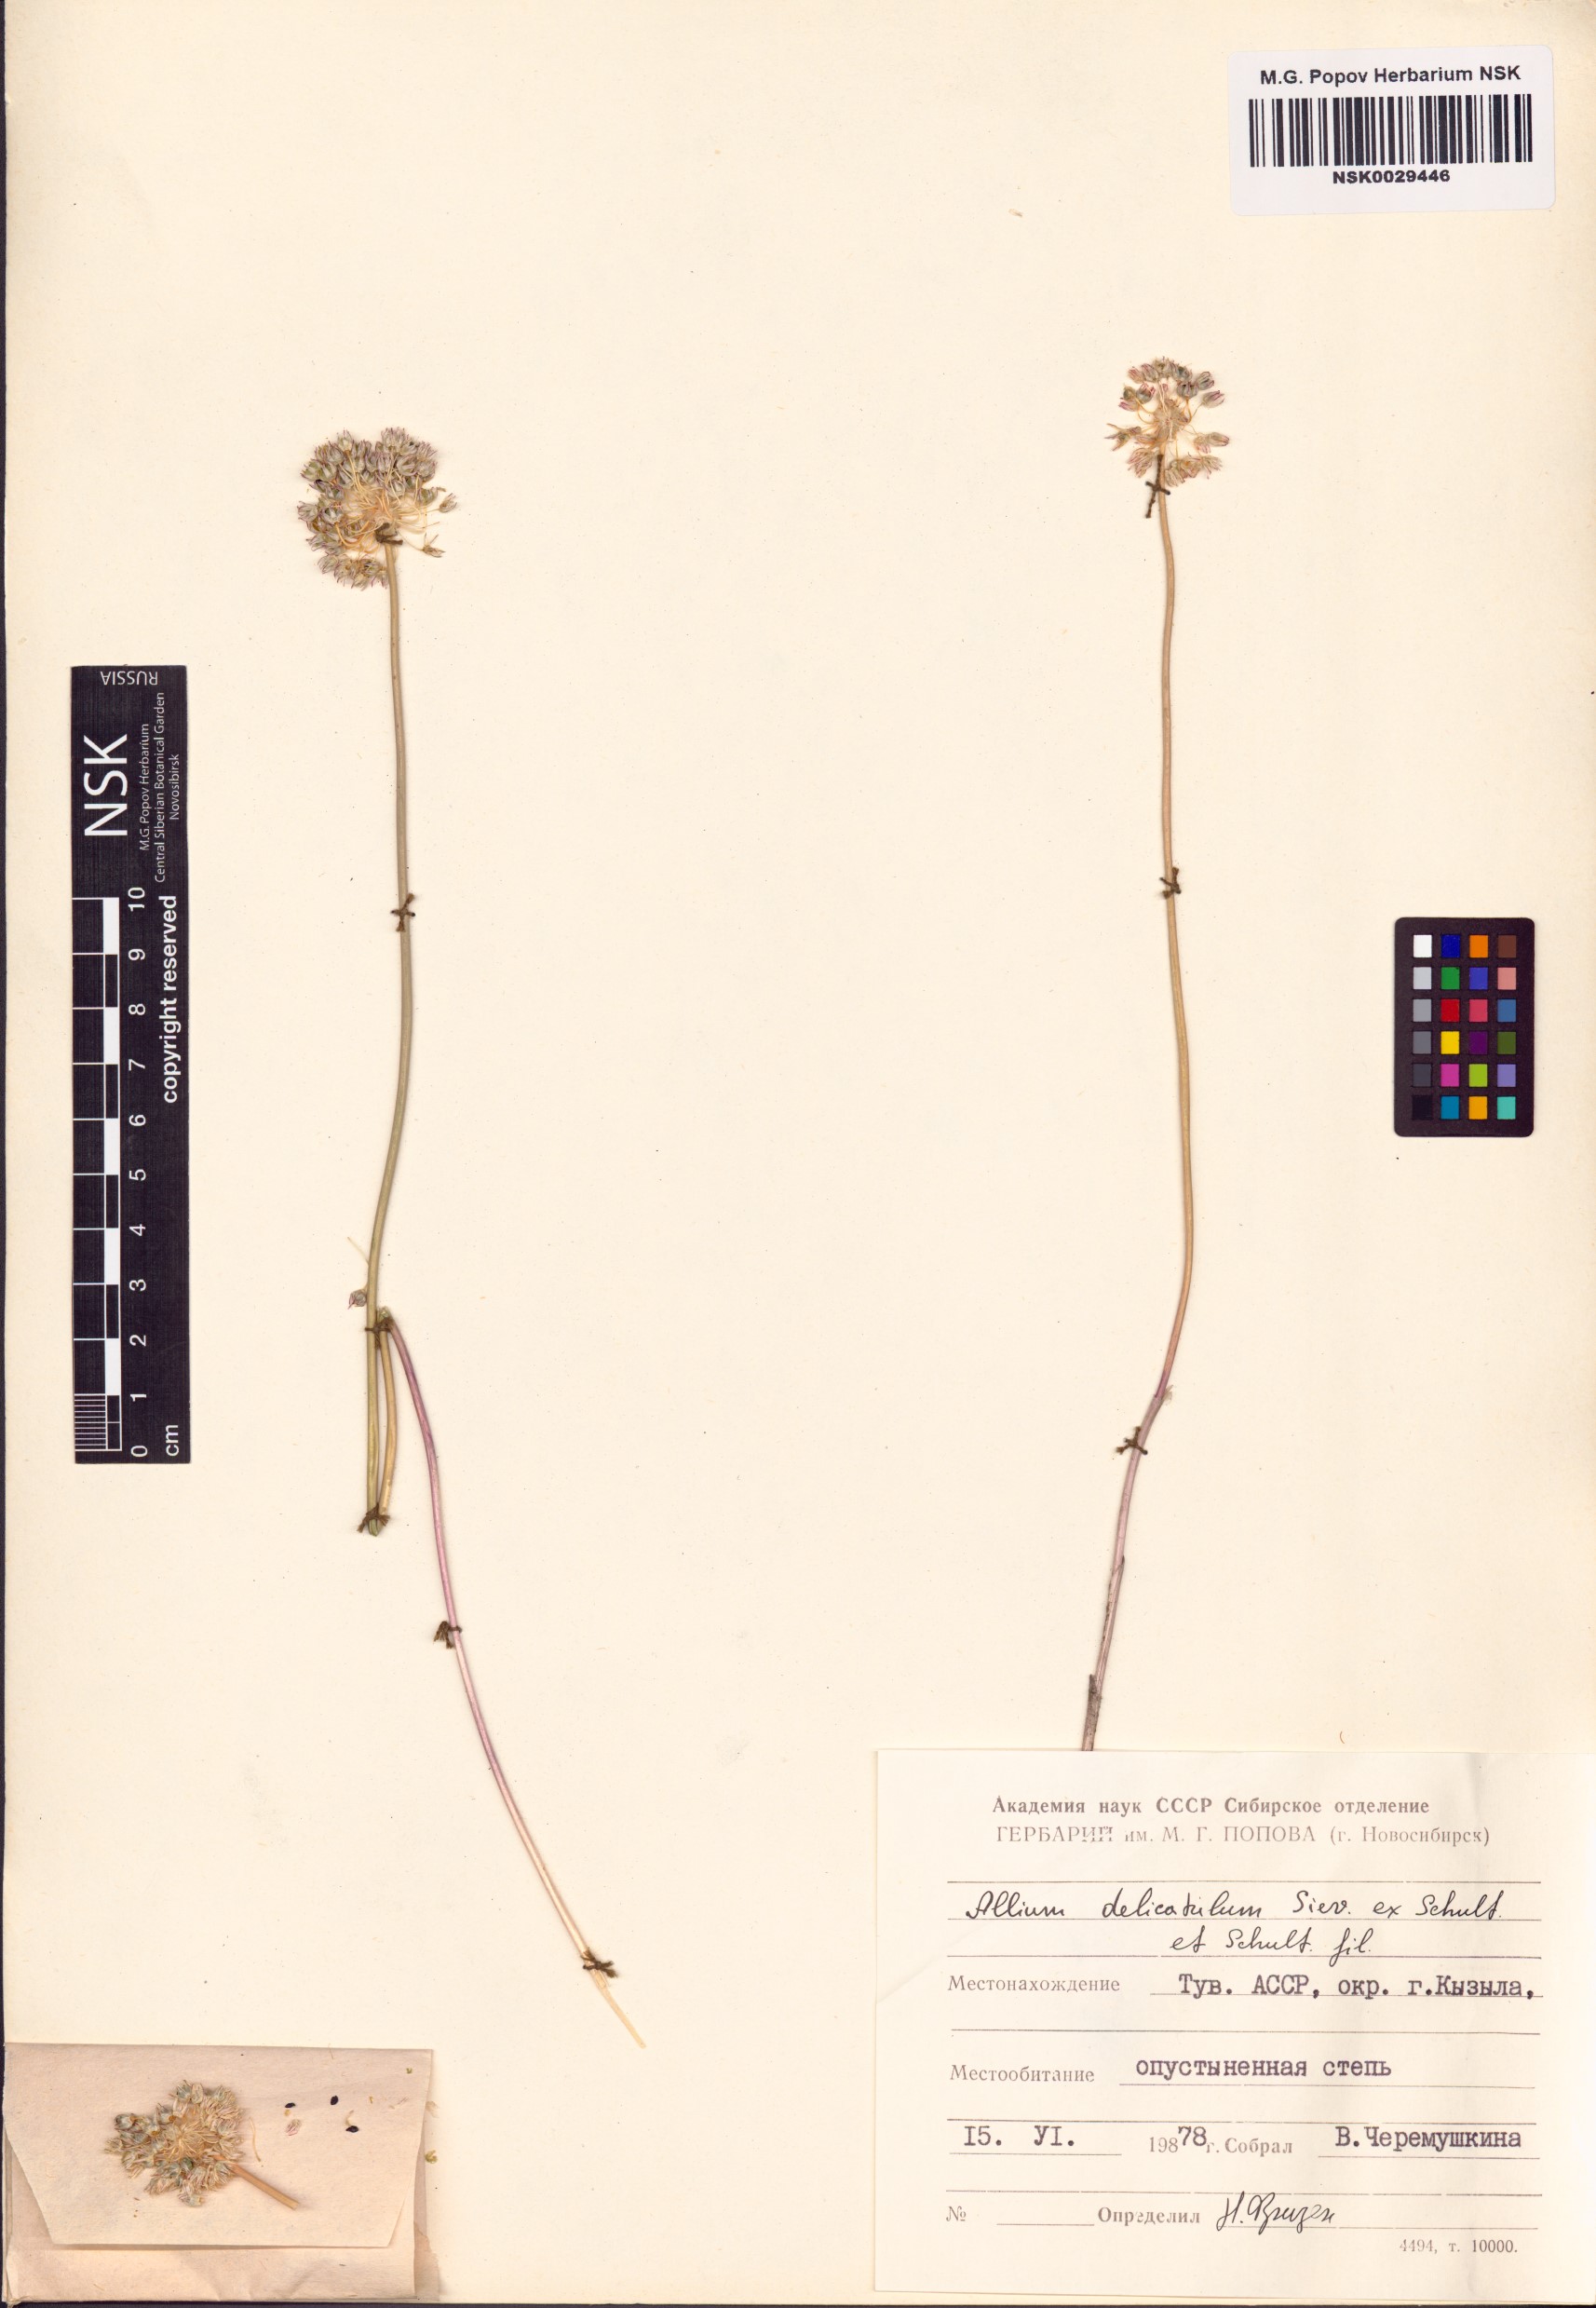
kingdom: Plantae
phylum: Tracheophyta
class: Liliopsida
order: Asparagales
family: Amaryllidaceae
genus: Allium
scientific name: Allium delicatulum
